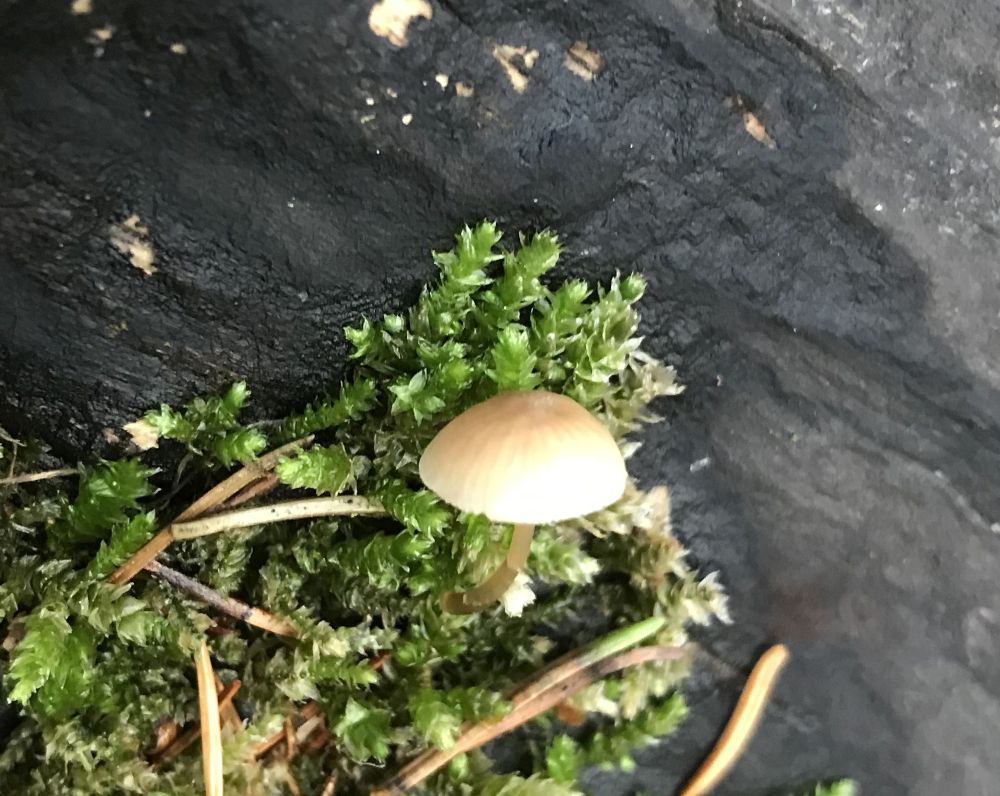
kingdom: Fungi
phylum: Basidiomycota
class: Agaricomycetes
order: Agaricales
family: Mycenaceae
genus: Mycena
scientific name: Mycena
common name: huesvamp
